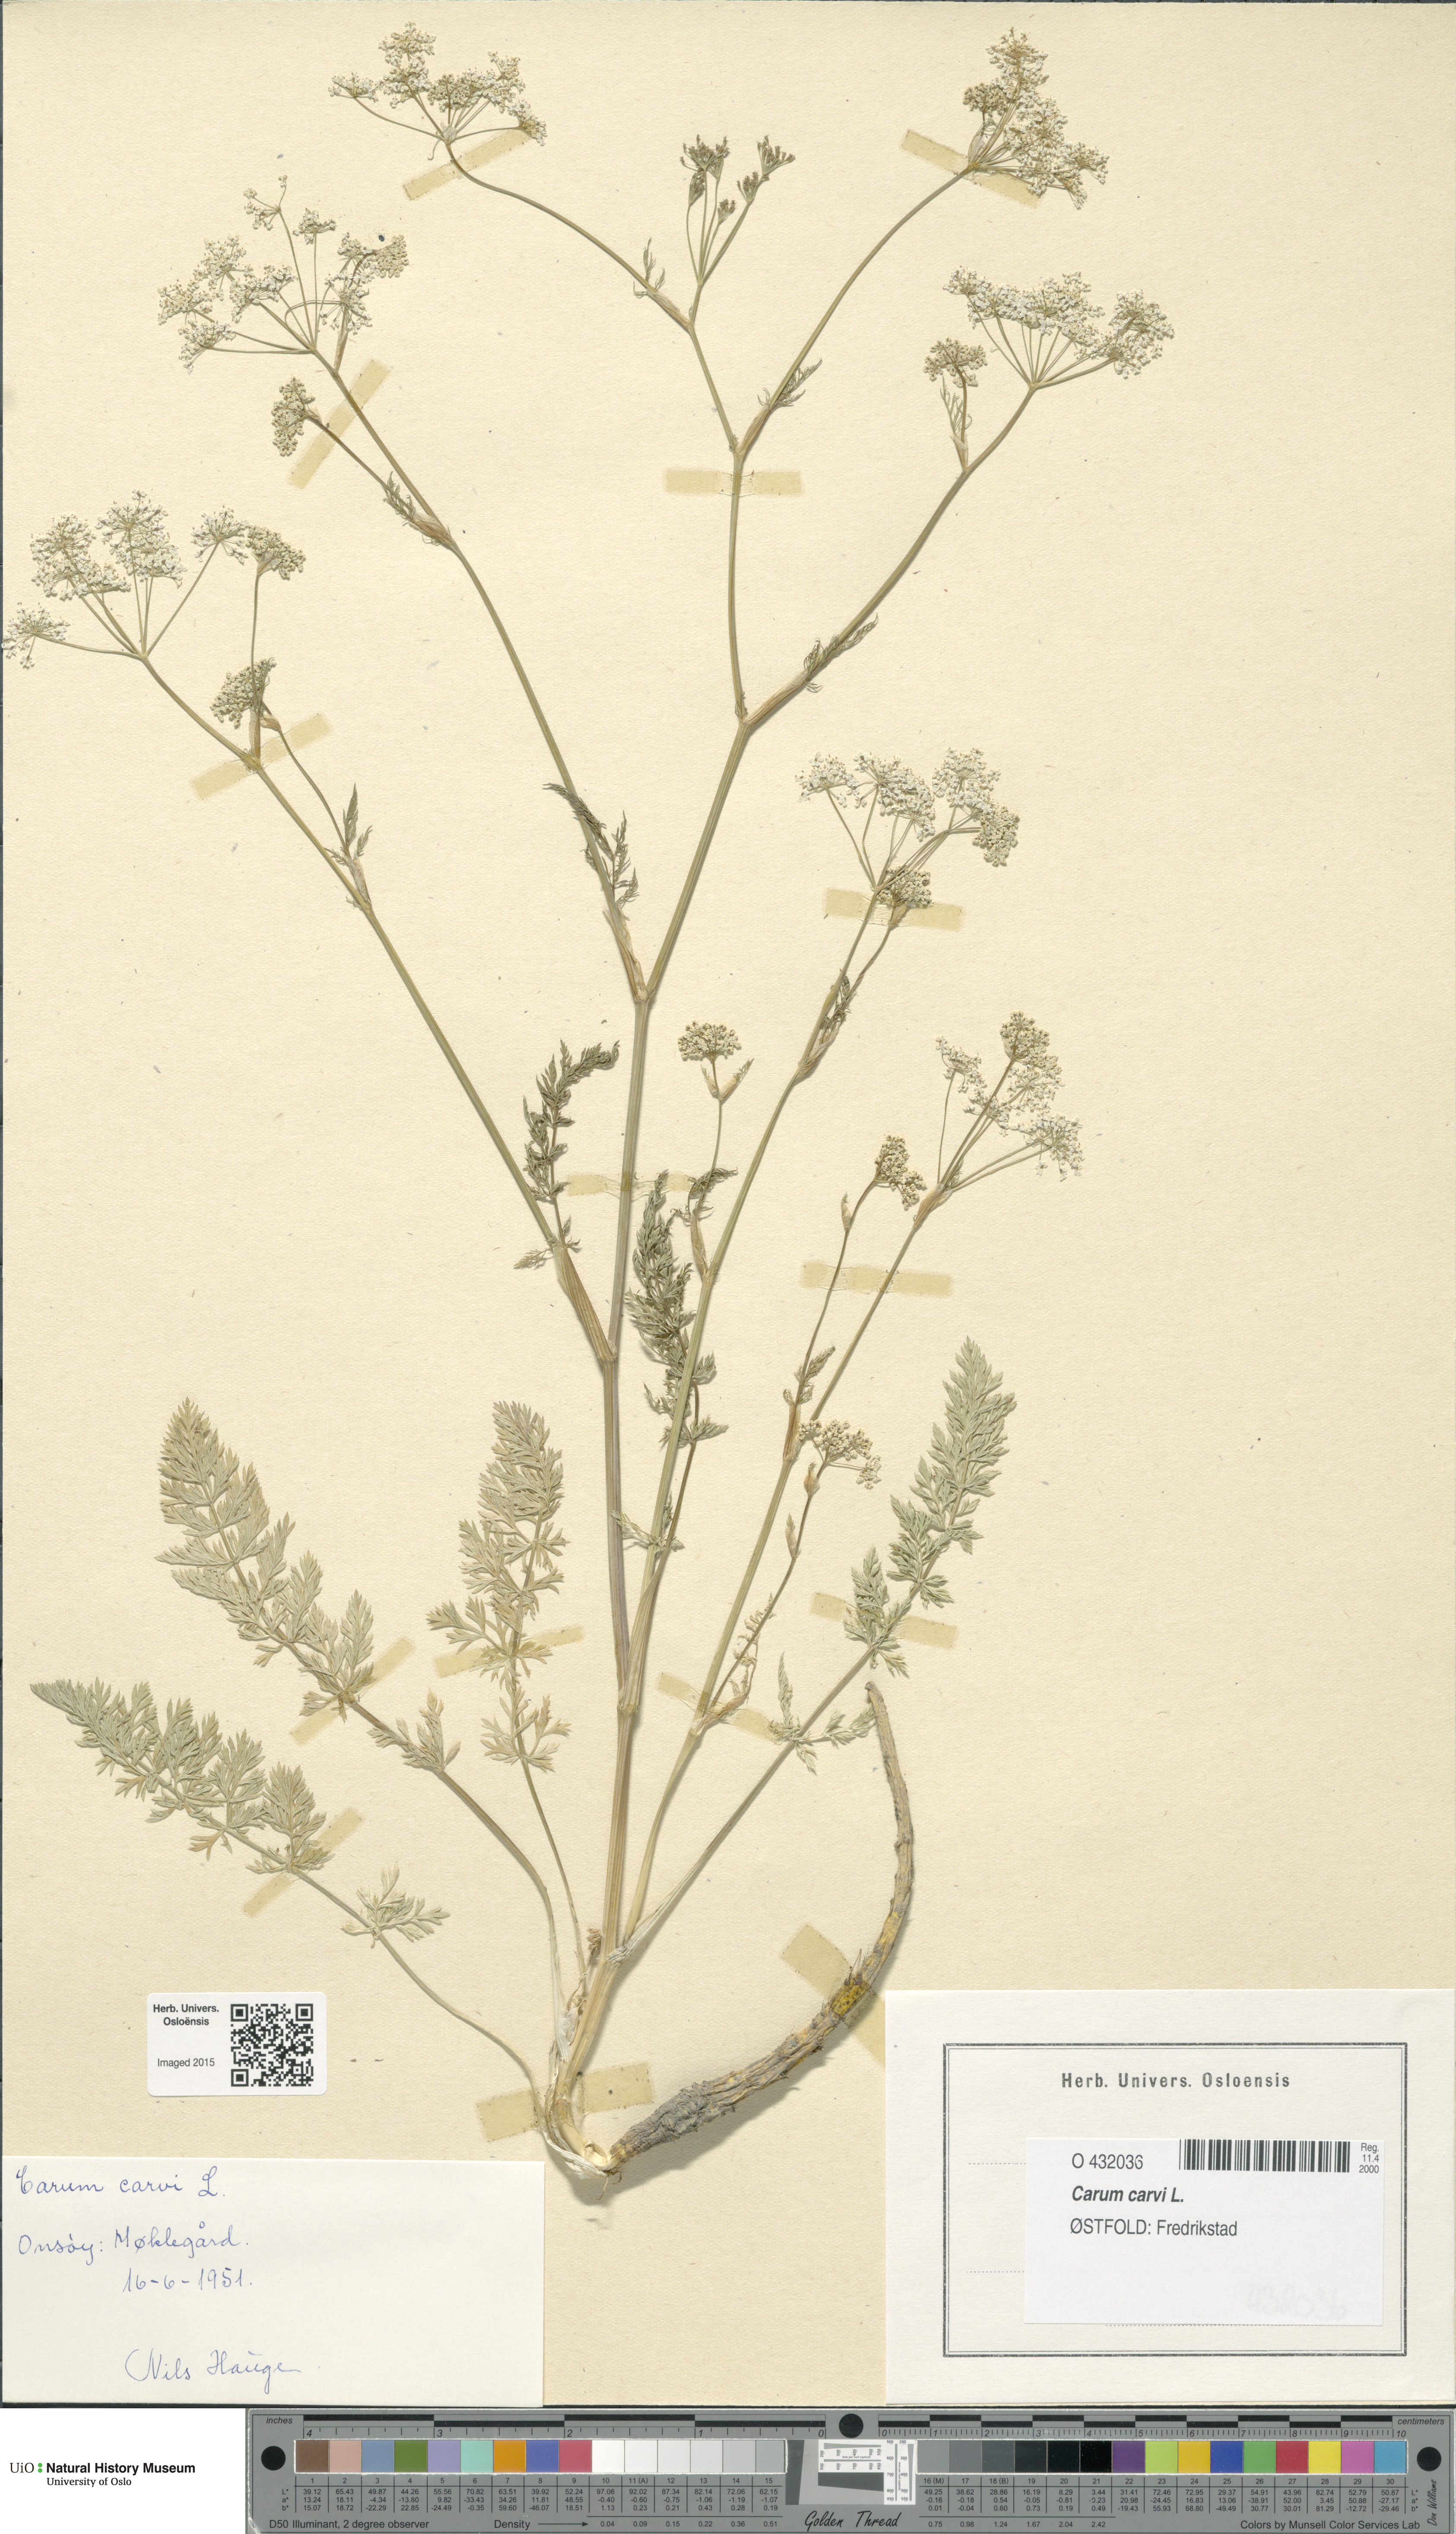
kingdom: Plantae
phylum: Tracheophyta
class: Magnoliopsida
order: Apiales
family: Apiaceae
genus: Carum
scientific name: Carum carvi
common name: Caraway
